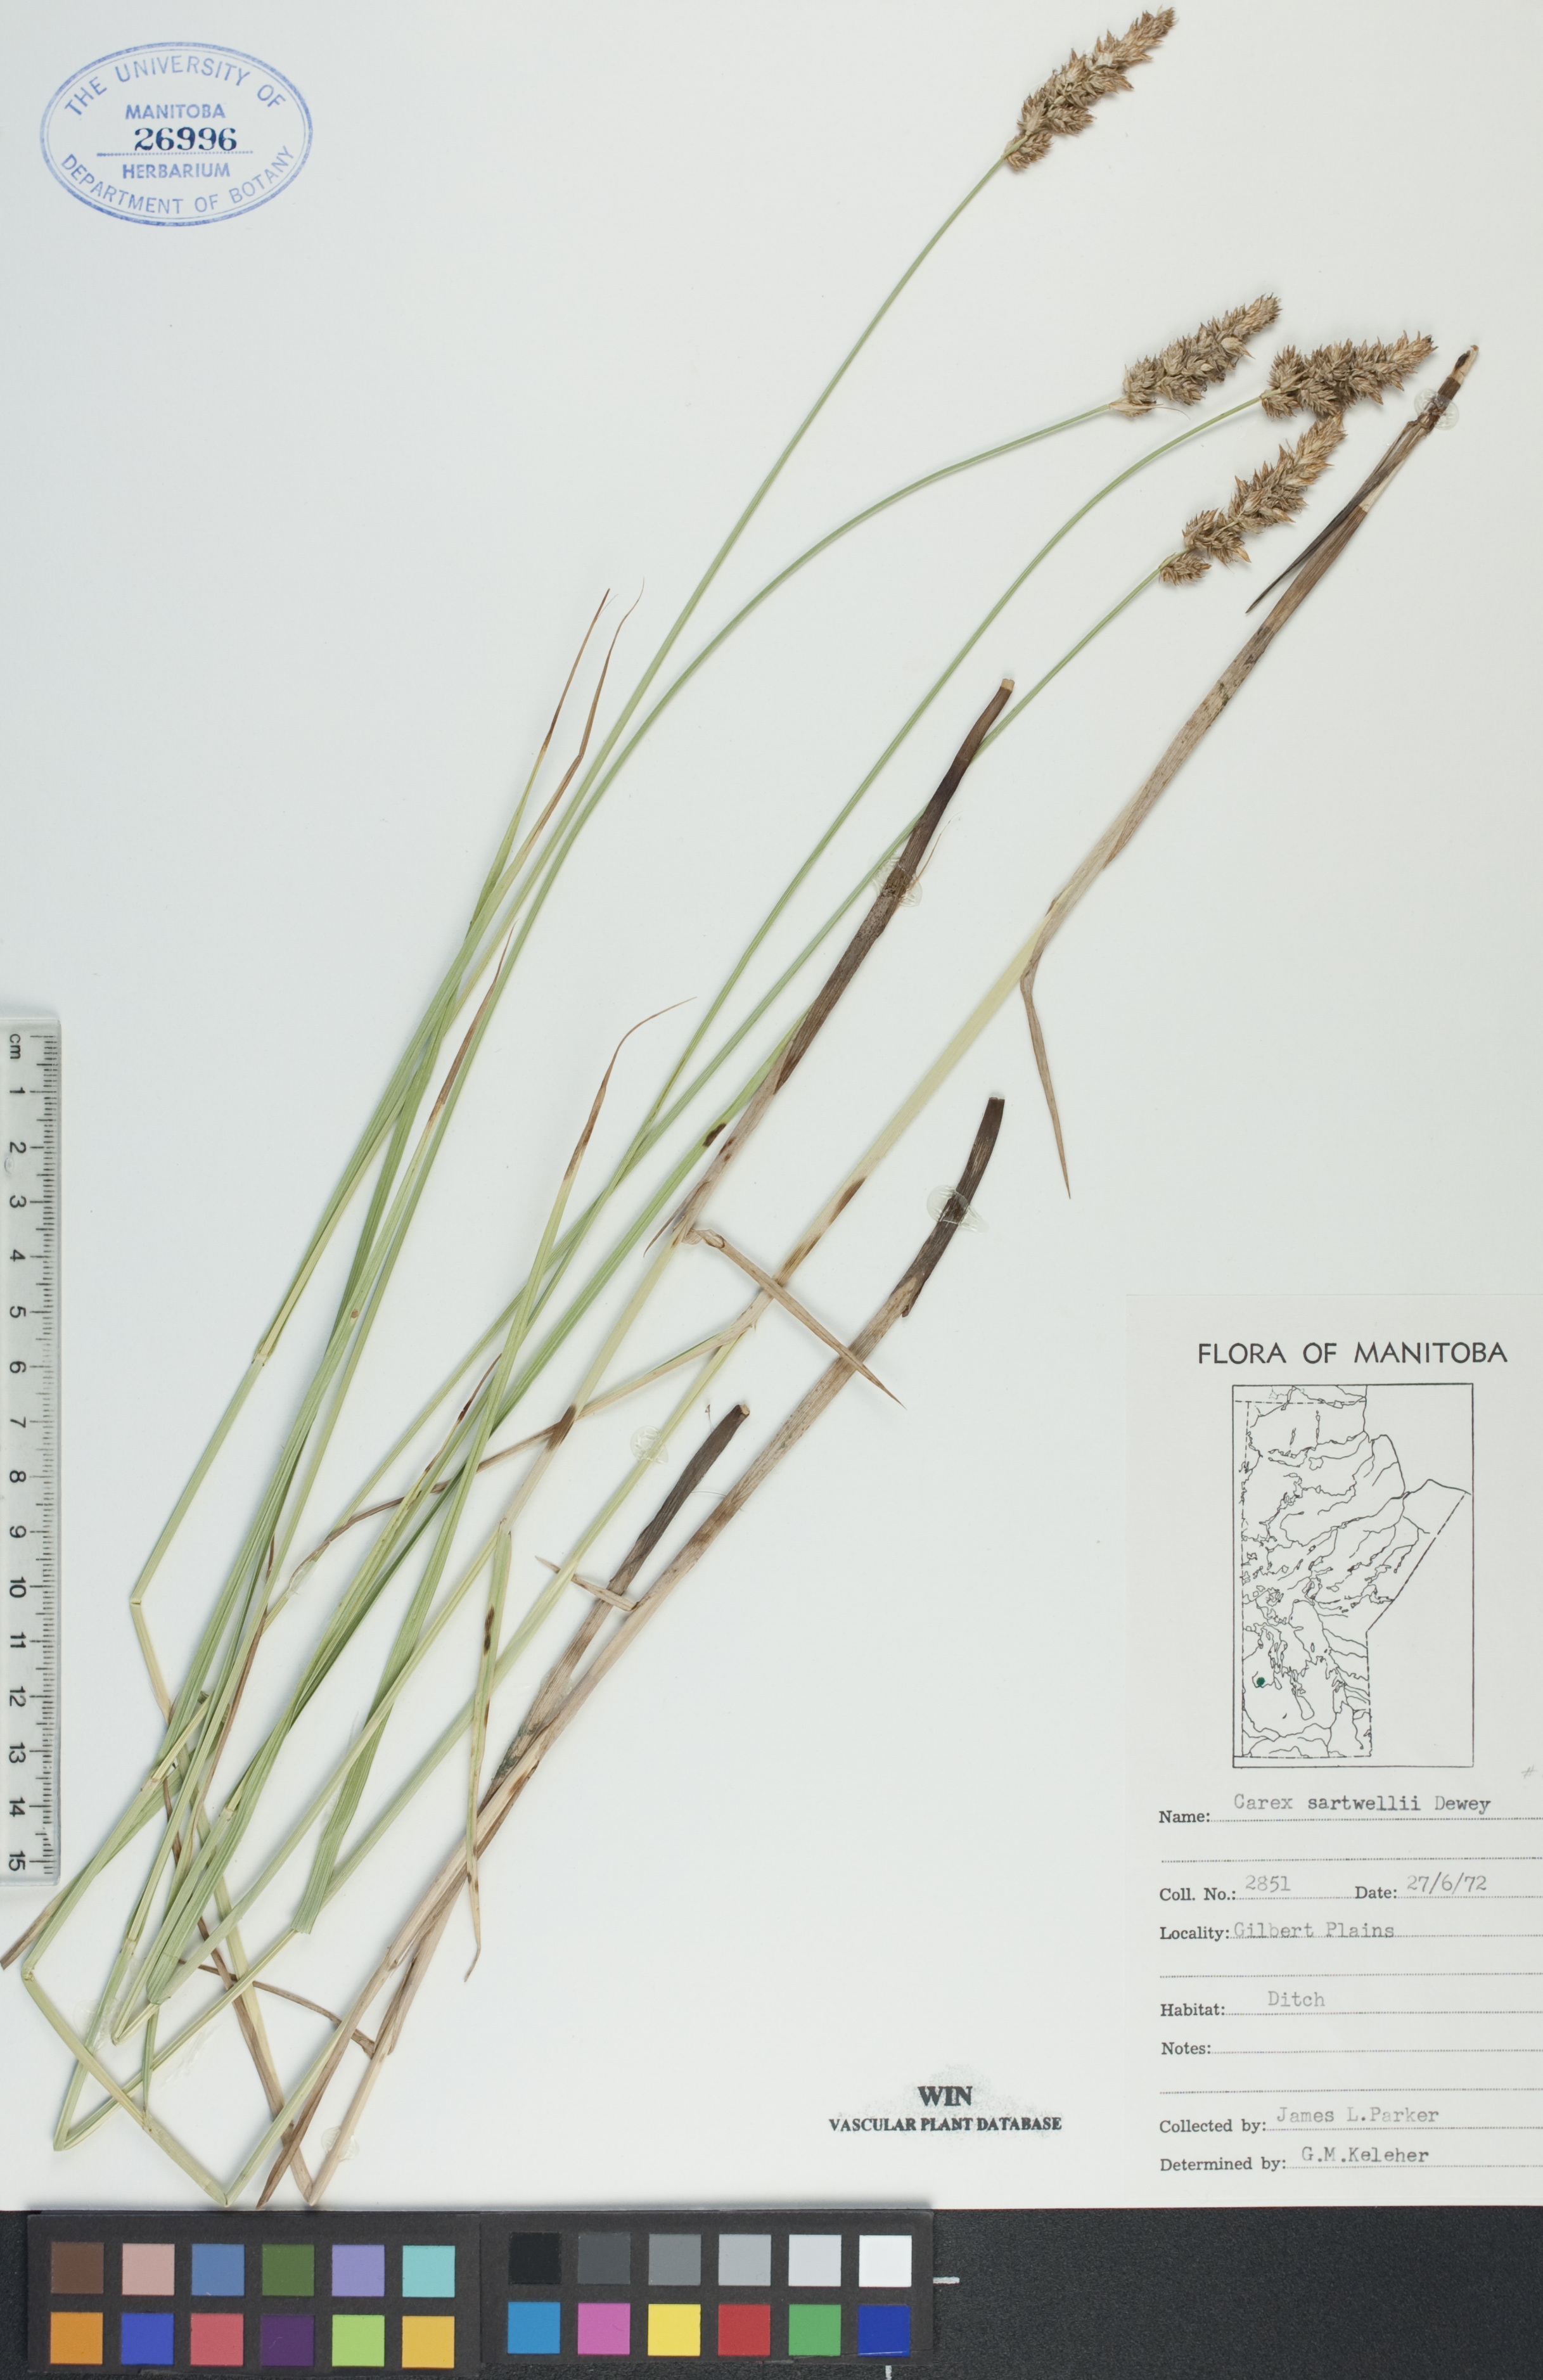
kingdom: Plantae
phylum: Tracheophyta
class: Liliopsida
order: Poales
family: Cyperaceae
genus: Carex
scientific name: Carex sartwellii
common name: Sartwell's sedge
